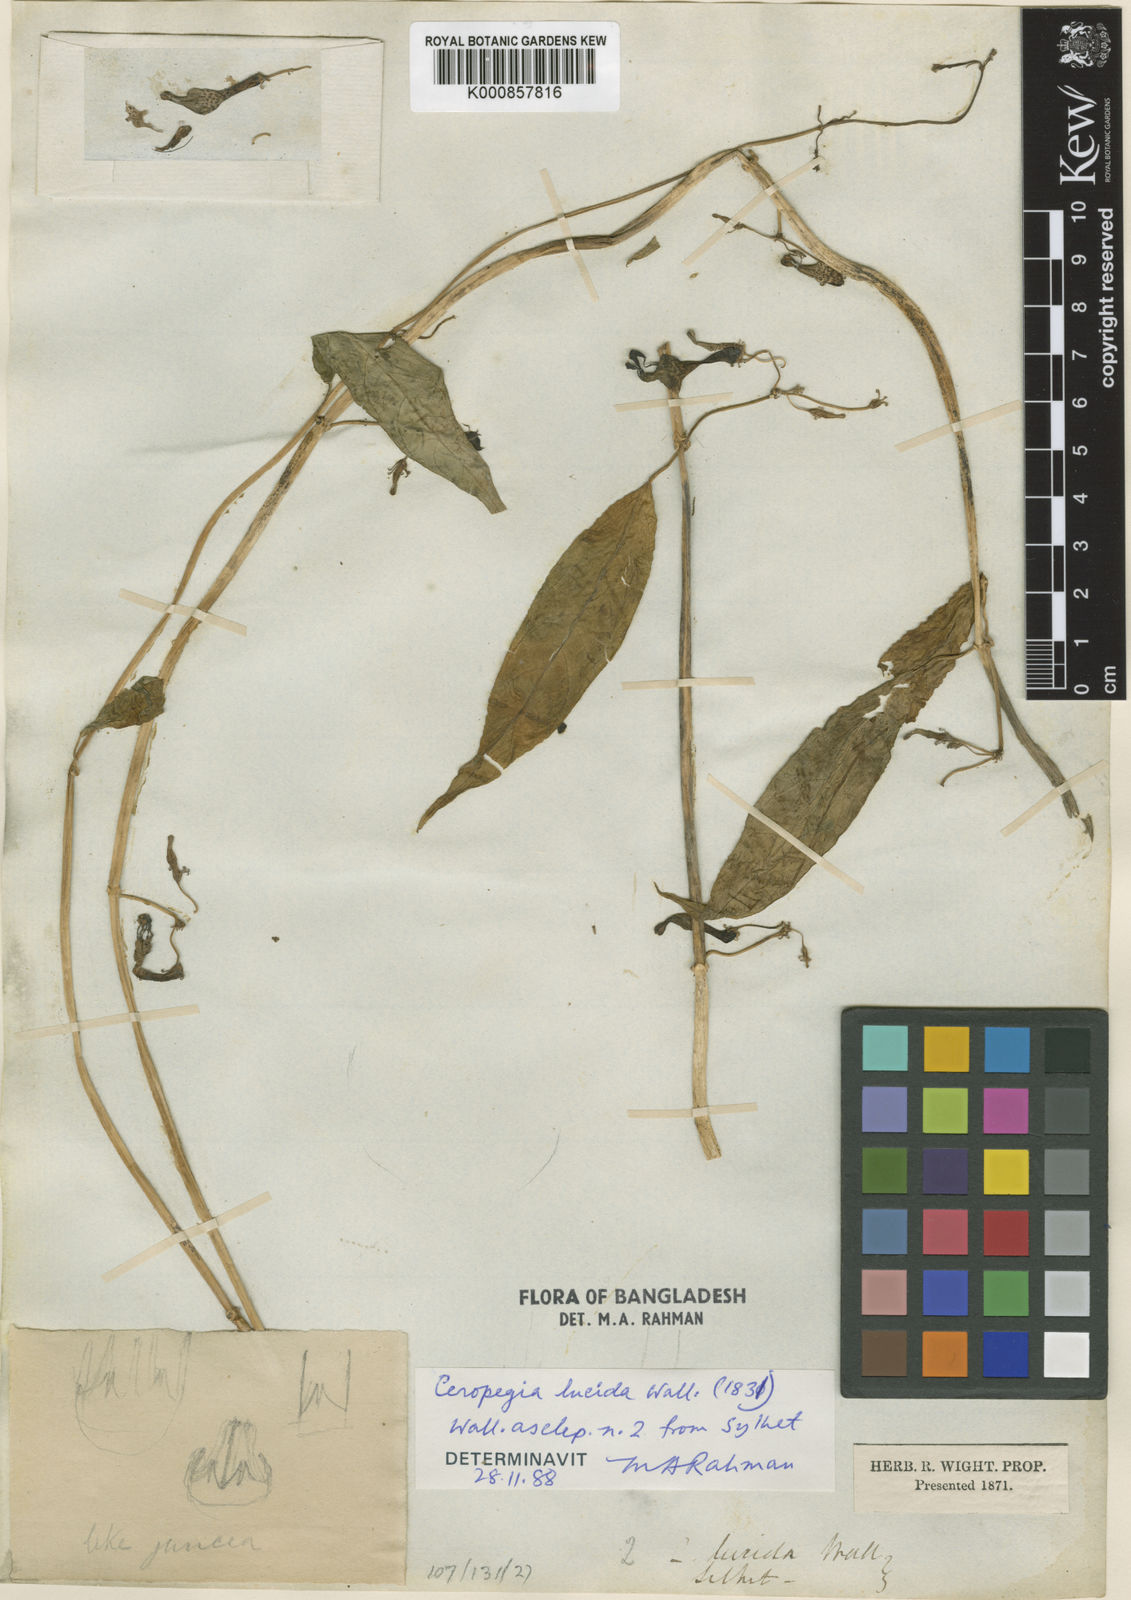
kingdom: Plantae
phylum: Tracheophyta
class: Magnoliopsida
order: Gentianales
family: Apocynaceae
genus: Ceropegia
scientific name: Ceropegia lucida
